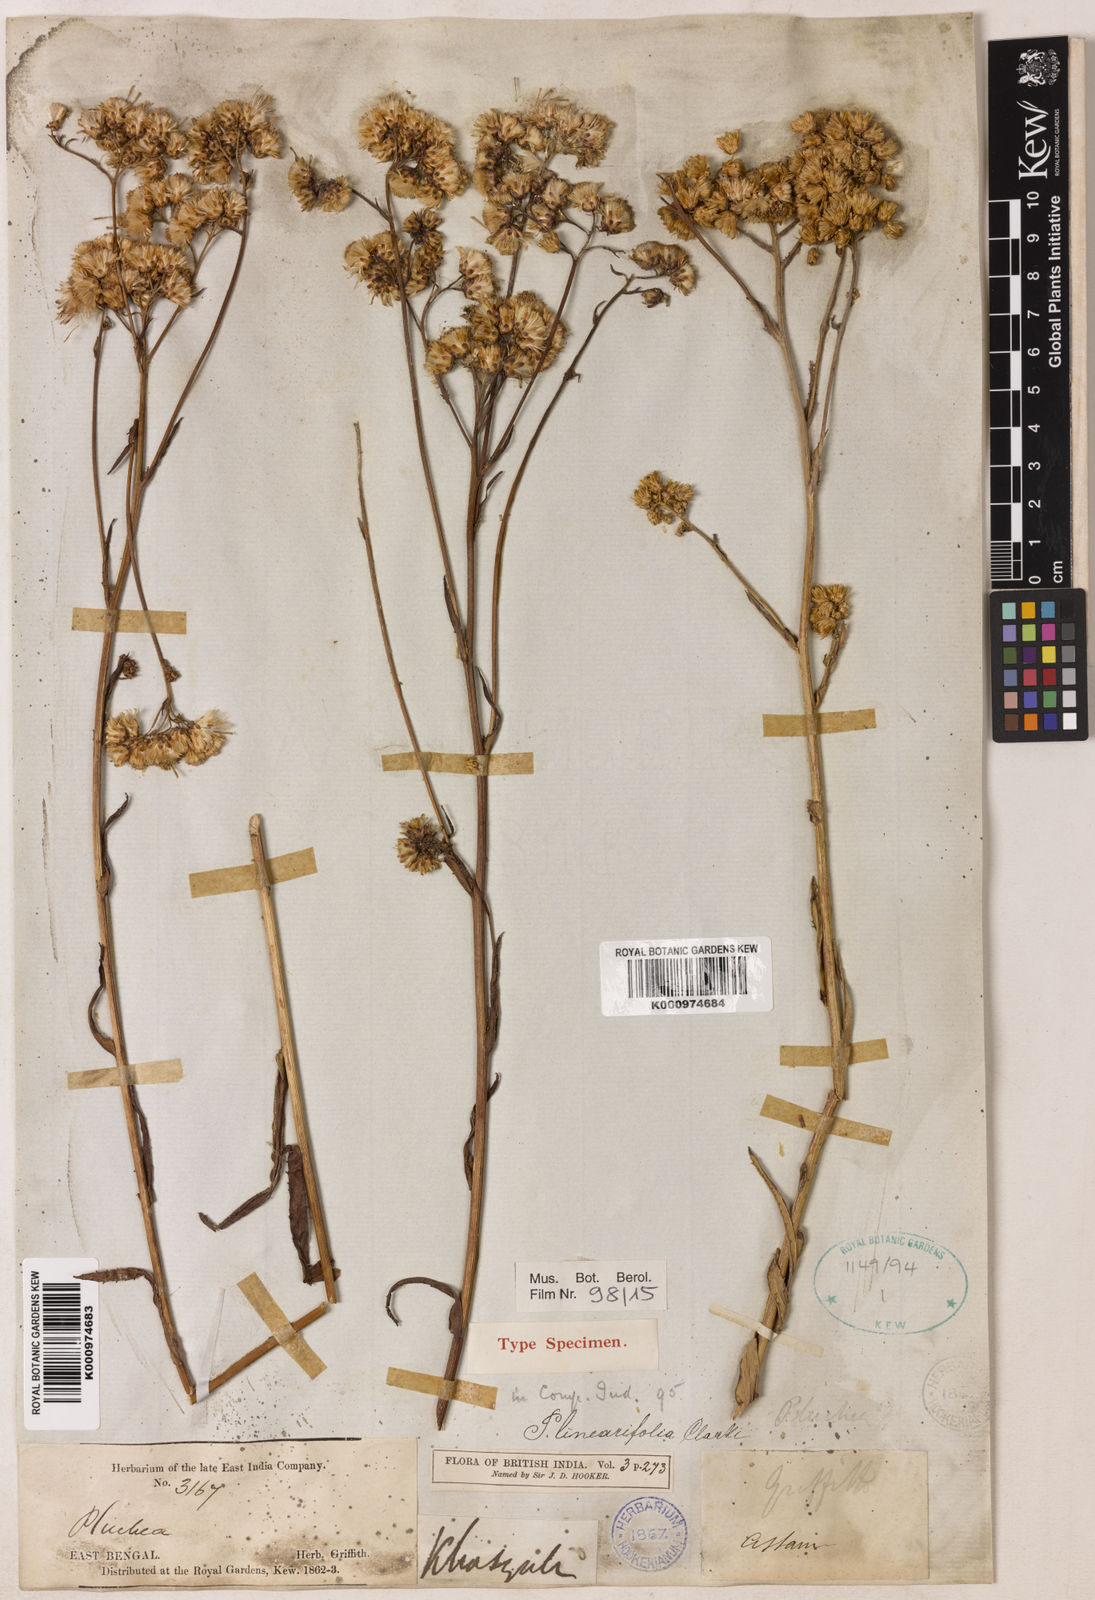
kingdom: Plantae
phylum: Tracheophyta
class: Magnoliopsida
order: Asterales
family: Asteraceae
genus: Pluchea
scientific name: Pluchea linearifolia
